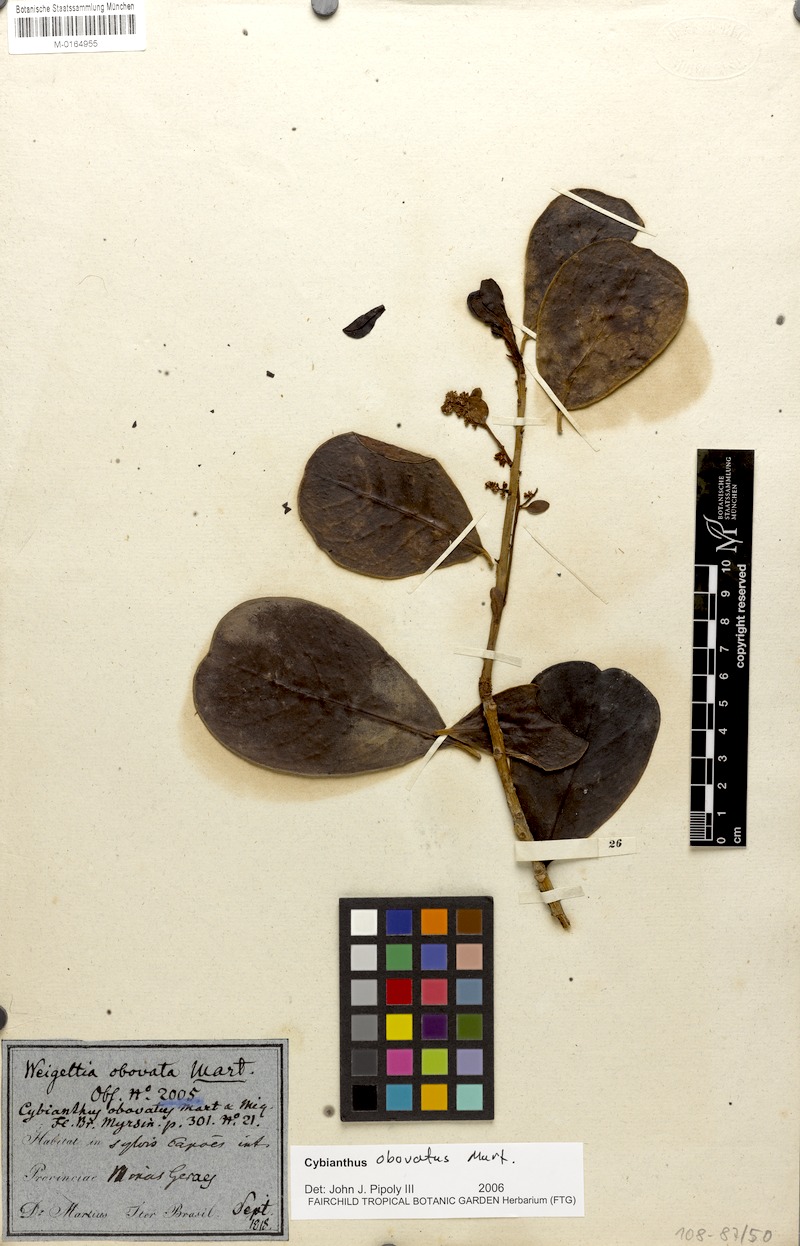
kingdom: Plantae
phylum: Tracheophyta
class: Magnoliopsida
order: Ericales
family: Primulaceae
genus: Cybianthus
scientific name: Cybianthus obovatus
